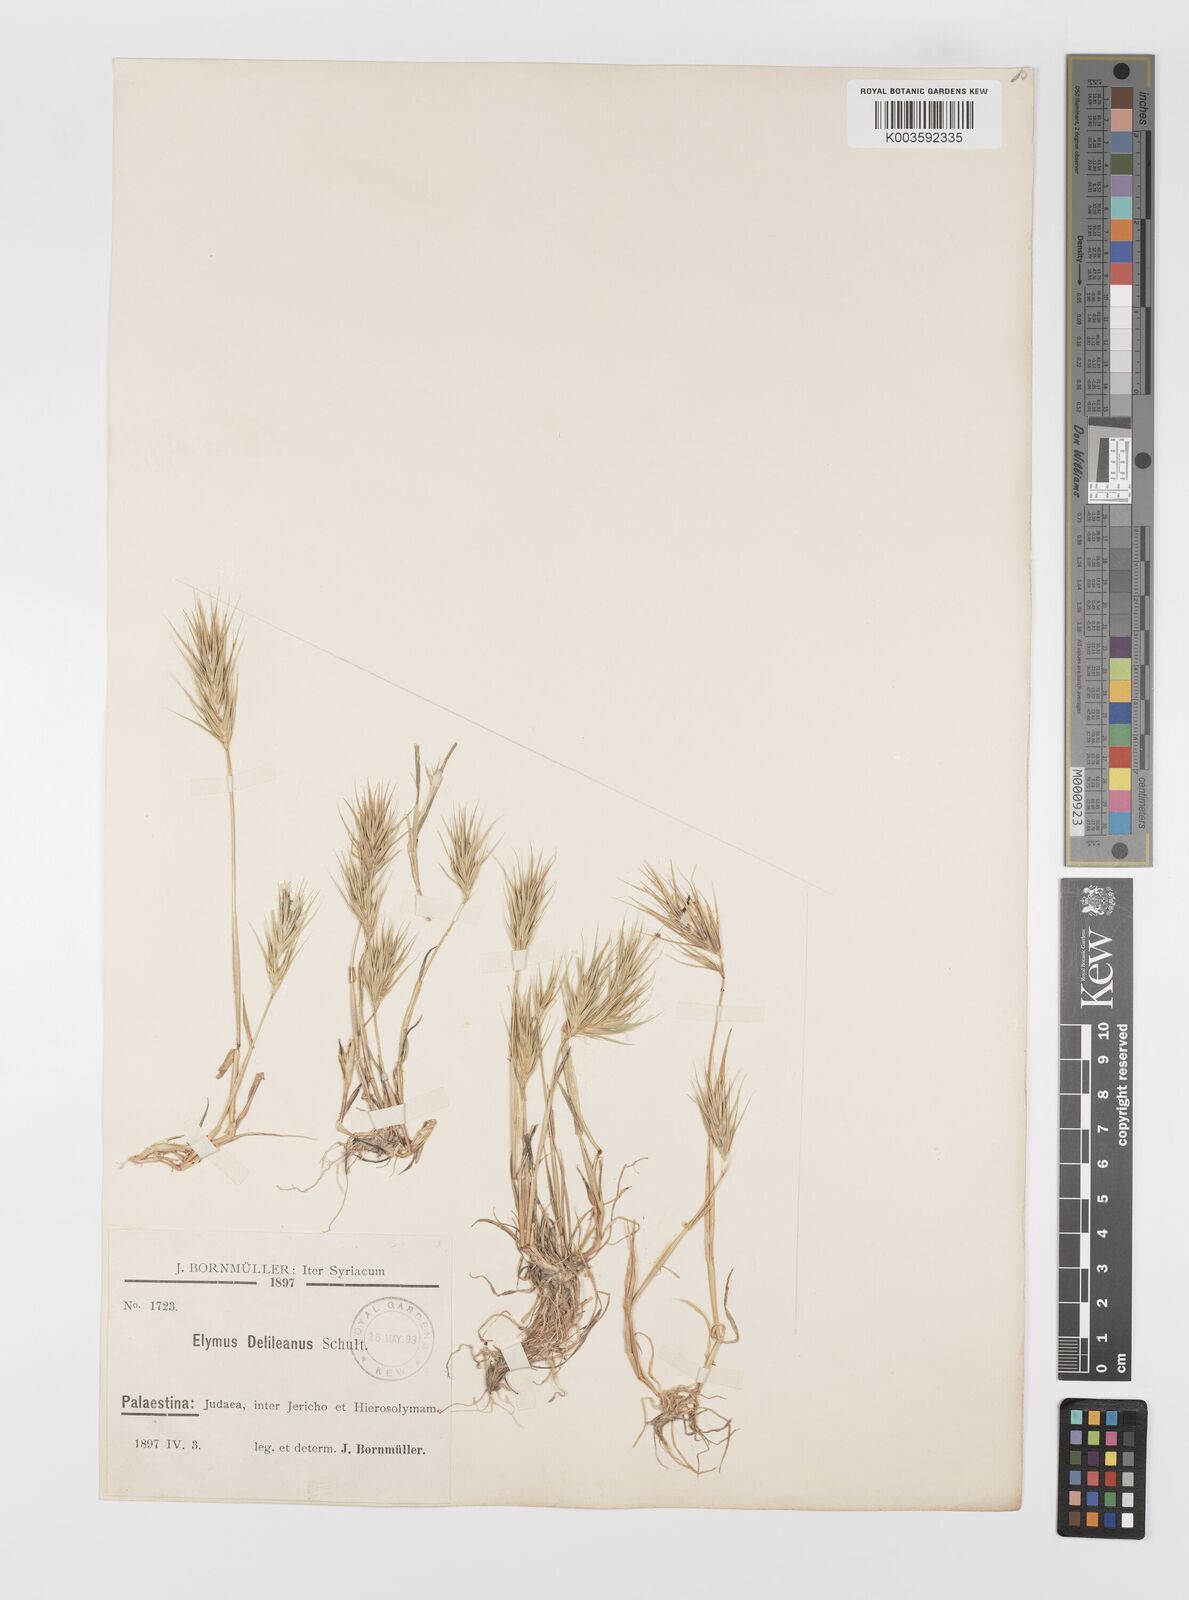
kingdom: Plantae
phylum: Tracheophyta
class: Liliopsida
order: Poales
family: Poaceae
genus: Crithopsis
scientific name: Crithopsis delileana
